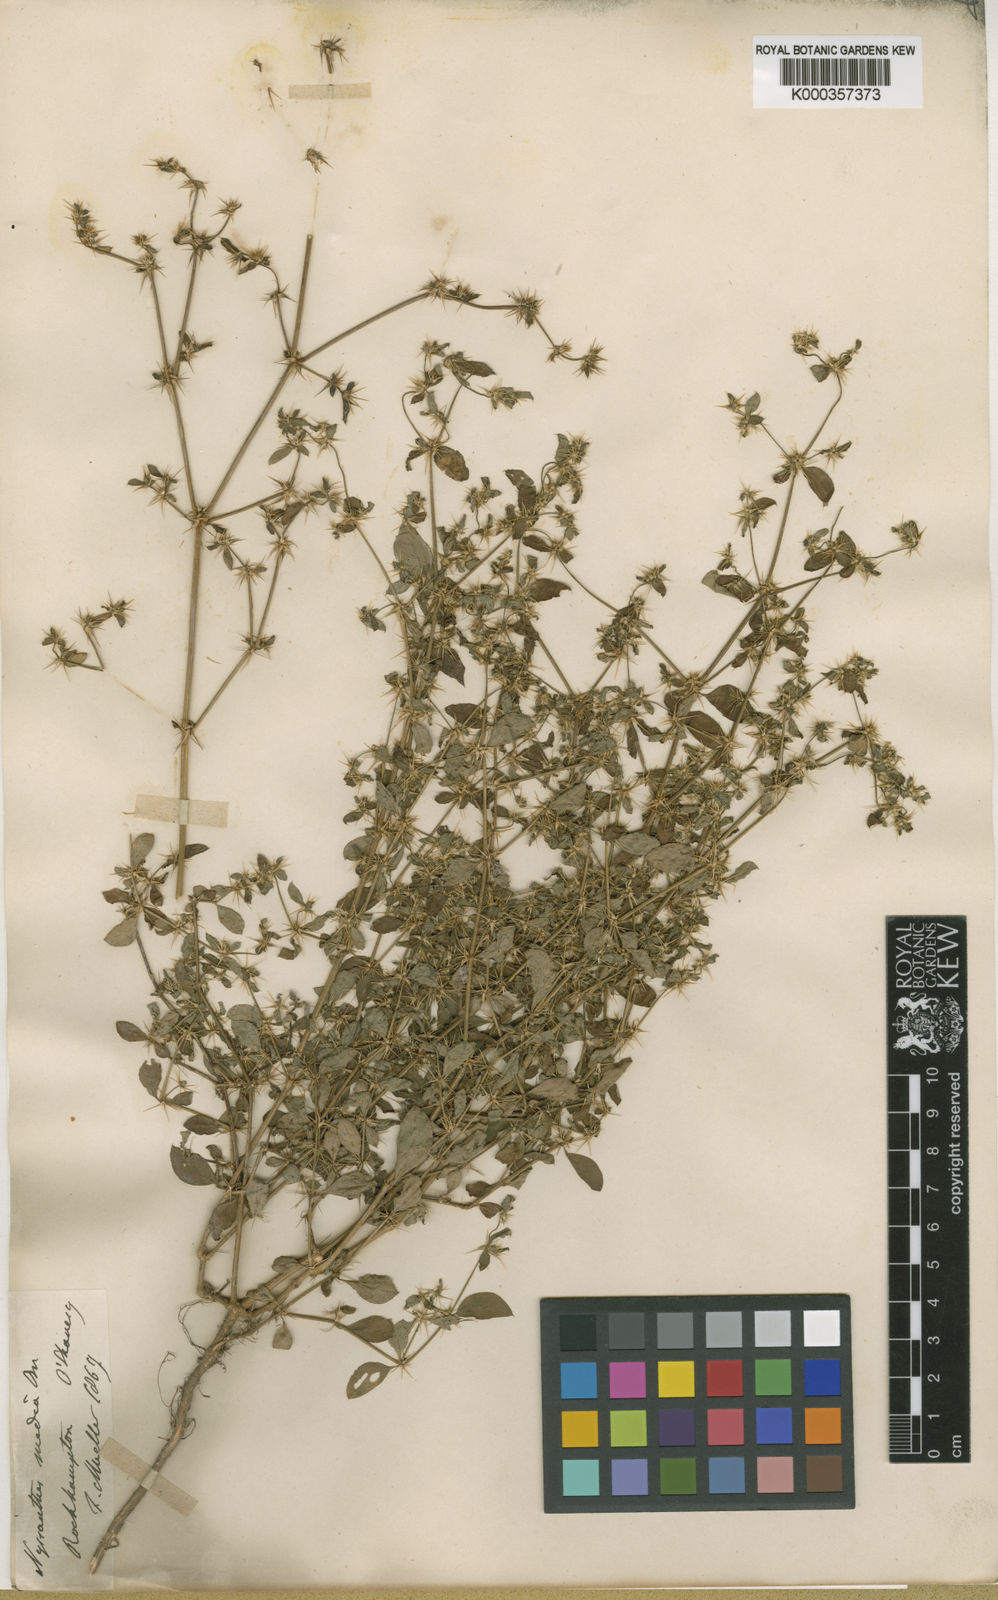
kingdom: Plantae
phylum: Tracheophyta
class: Magnoliopsida
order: Caryophyllales
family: Amaranthaceae
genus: Nyssanthes
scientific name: Nyssanthes diffusa
